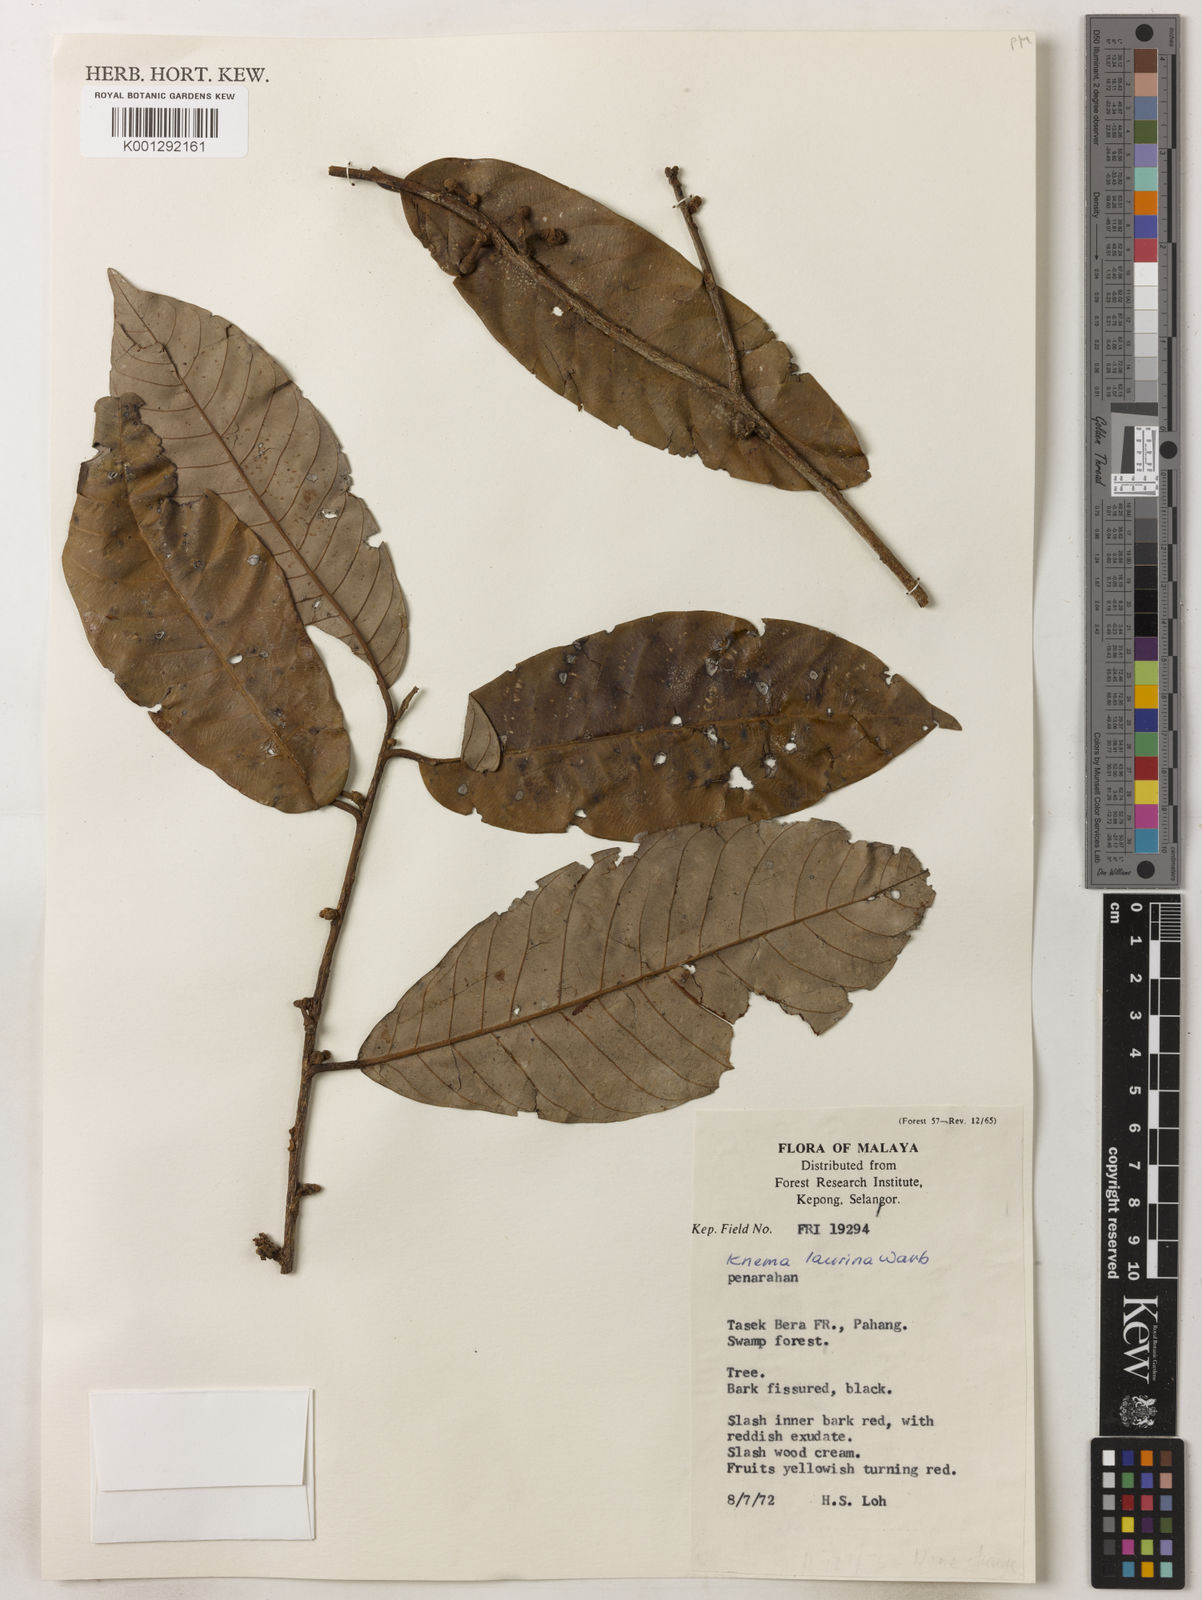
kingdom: Plantae
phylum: Tracheophyta
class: Magnoliopsida
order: Magnoliales
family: Myristicaceae
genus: Knema
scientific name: Knema laurina
